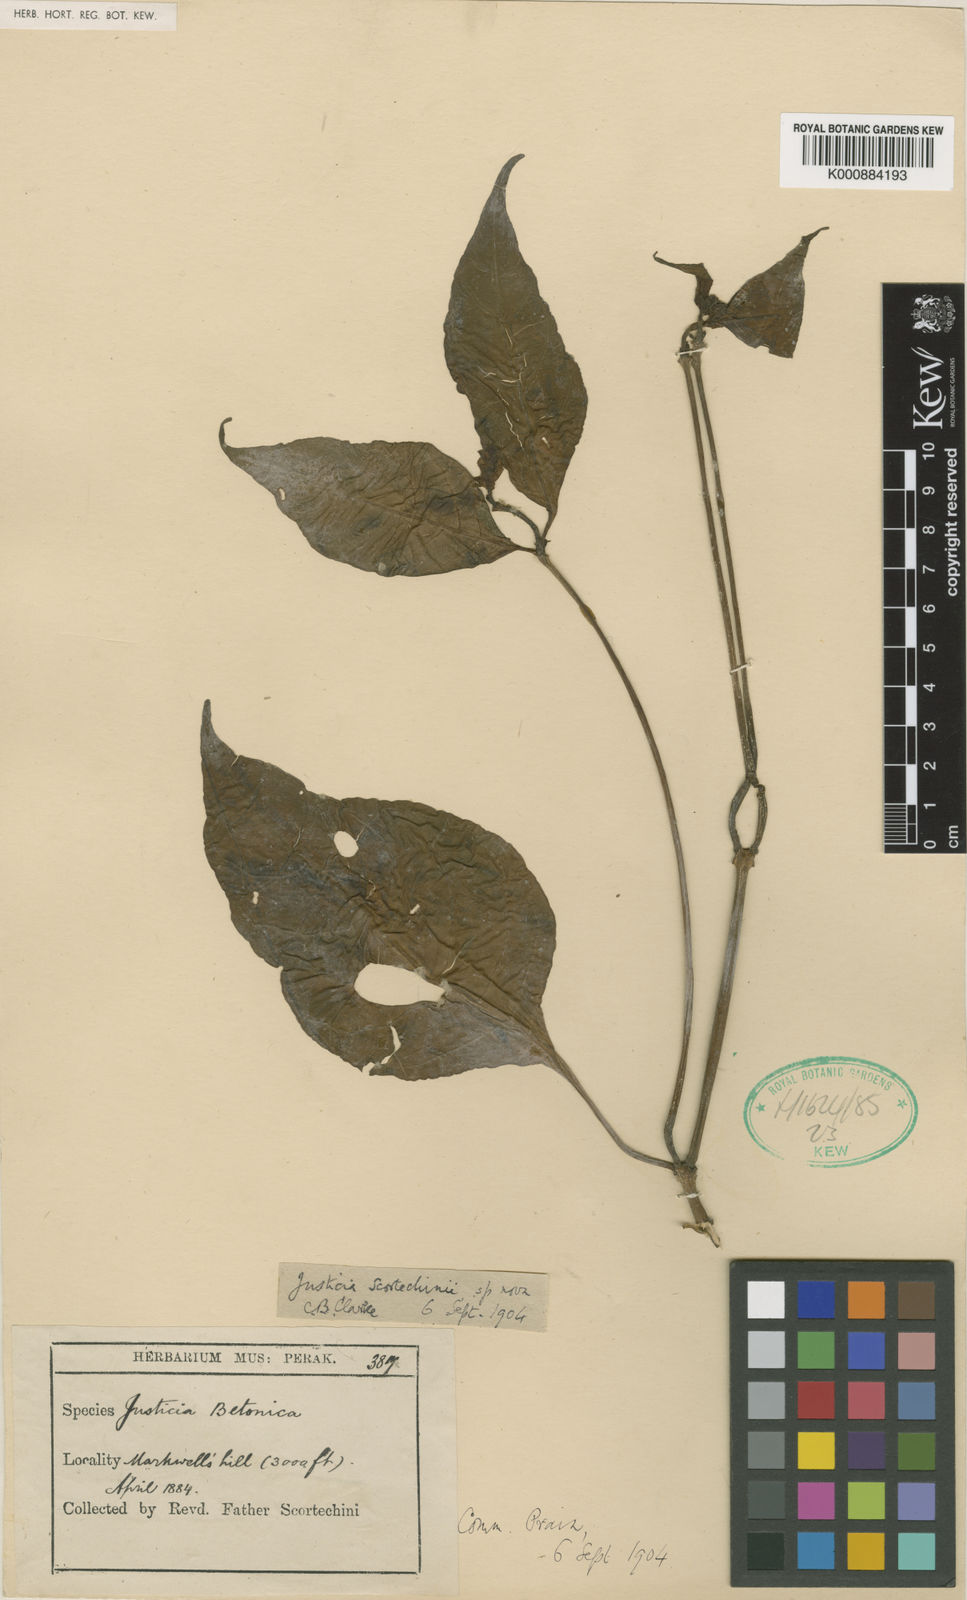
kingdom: Plantae
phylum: Tracheophyta
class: Magnoliopsida
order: Lamiales
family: Acanthaceae
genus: Justicia
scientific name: Justicia scortechinii
